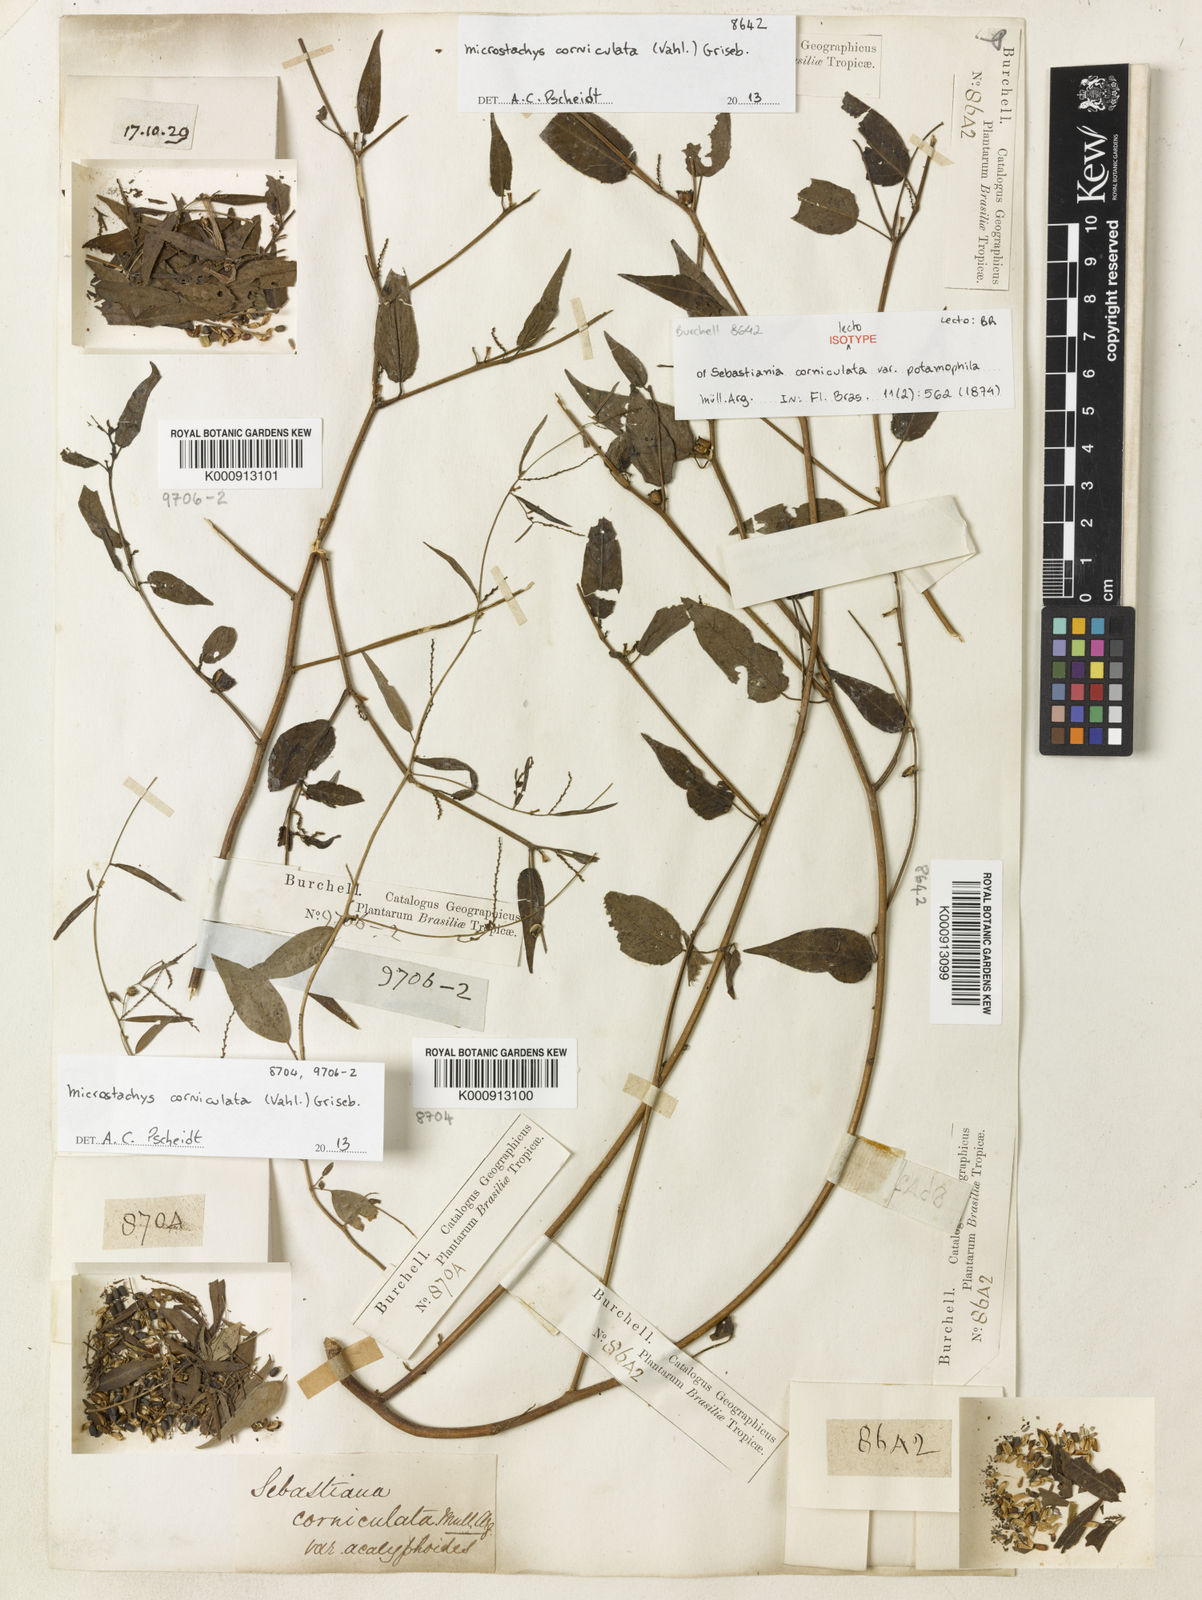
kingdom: Plantae
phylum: Tracheophyta
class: Magnoliopsida
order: Malpighiales
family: Euphorbiaceae
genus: Microstachys
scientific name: Microstachys corniculata
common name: Hato tejas
